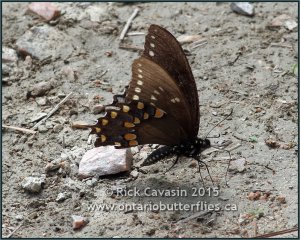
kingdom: Animalia
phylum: Arthropoda
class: Insecta
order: Lepidoptera
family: Papilionidae
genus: Pterourus
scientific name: Pterourus troilus
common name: Spicebush Swallowtail
